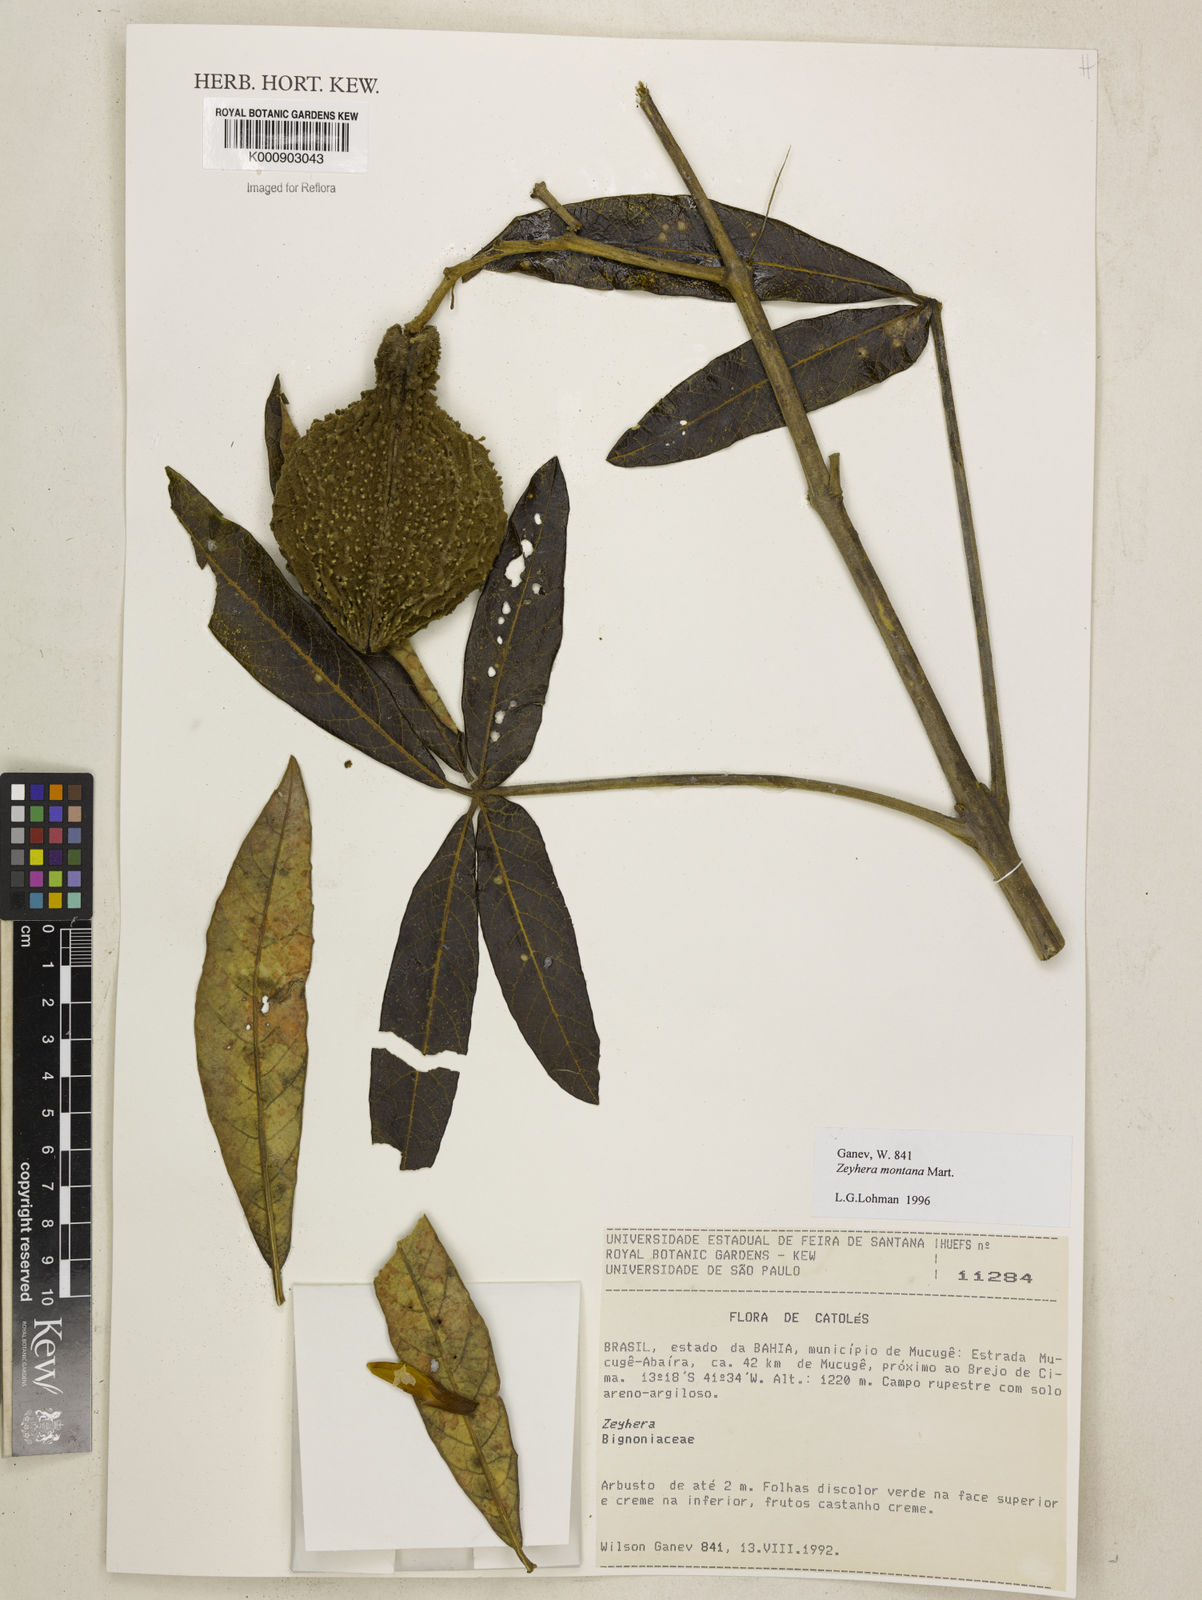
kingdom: Plantae
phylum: Tracheophyta
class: Magnoliopsida
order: Lamiales
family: Bignoniaceae
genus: Zeyheria
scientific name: Zeyheria
